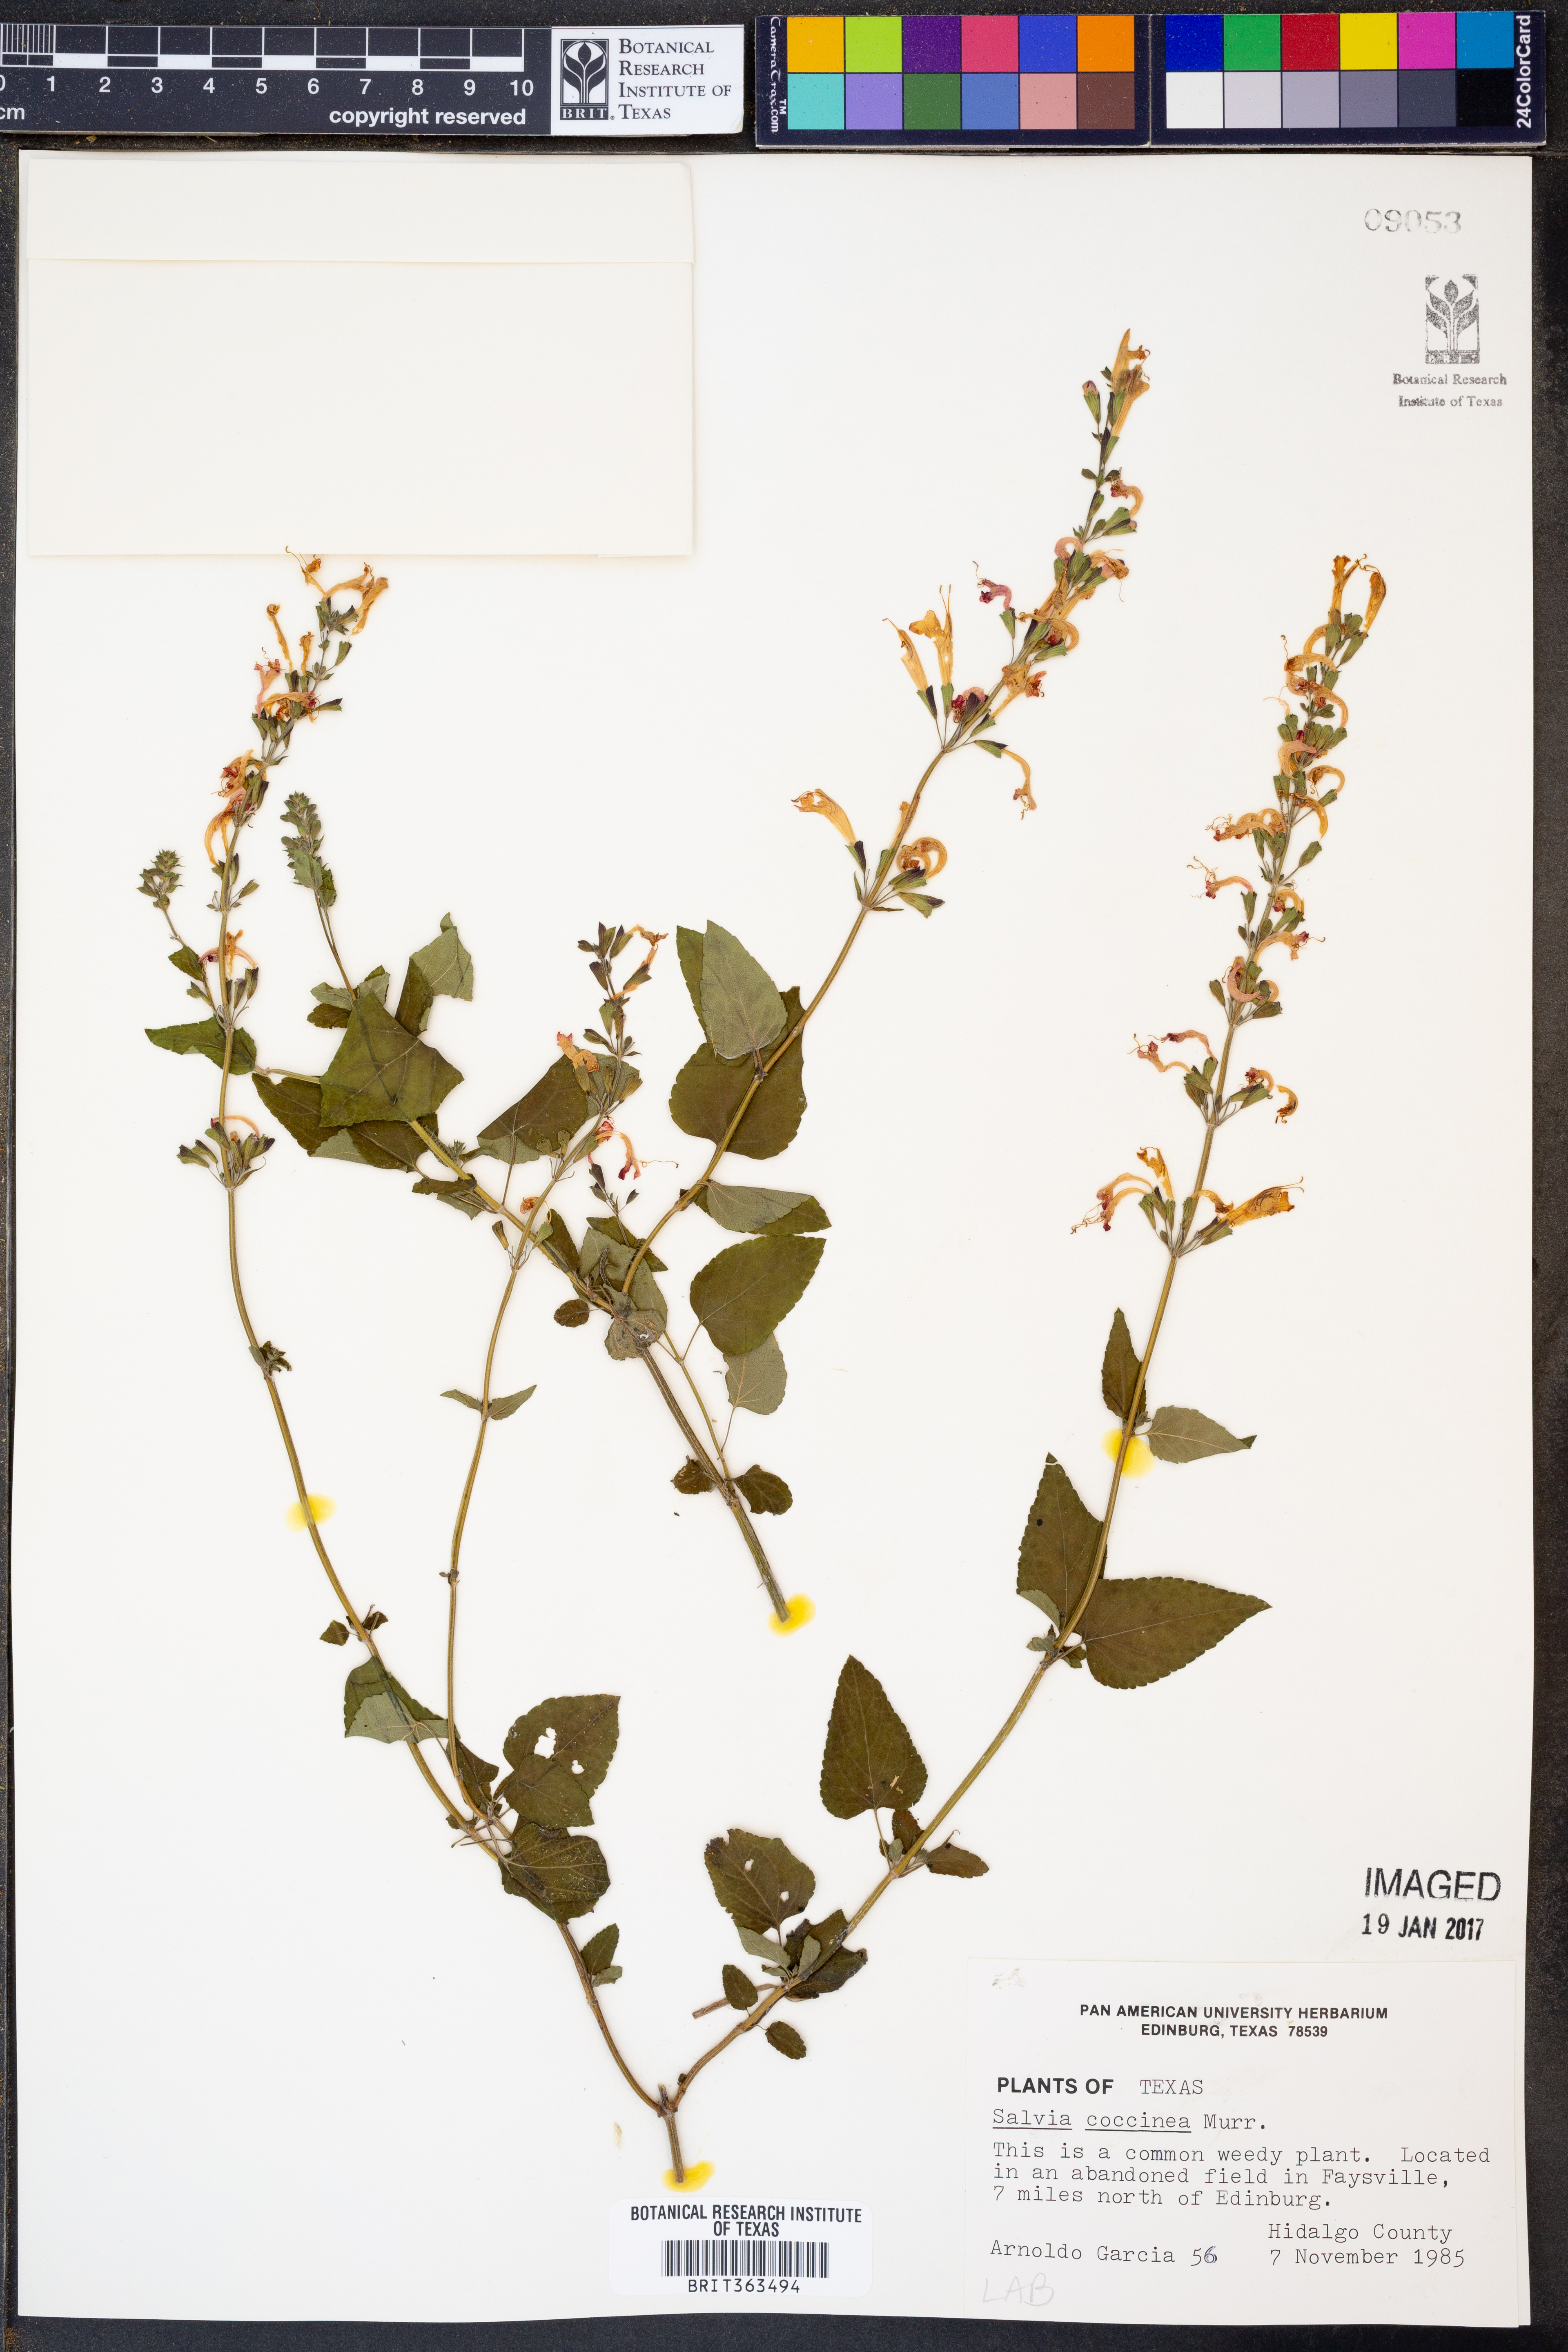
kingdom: Plantae
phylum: Tracheophyta
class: Magnoliopsida
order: Lamiales
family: Lamiaceae
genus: Salvia
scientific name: Salvia coccinea
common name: Blood sage
